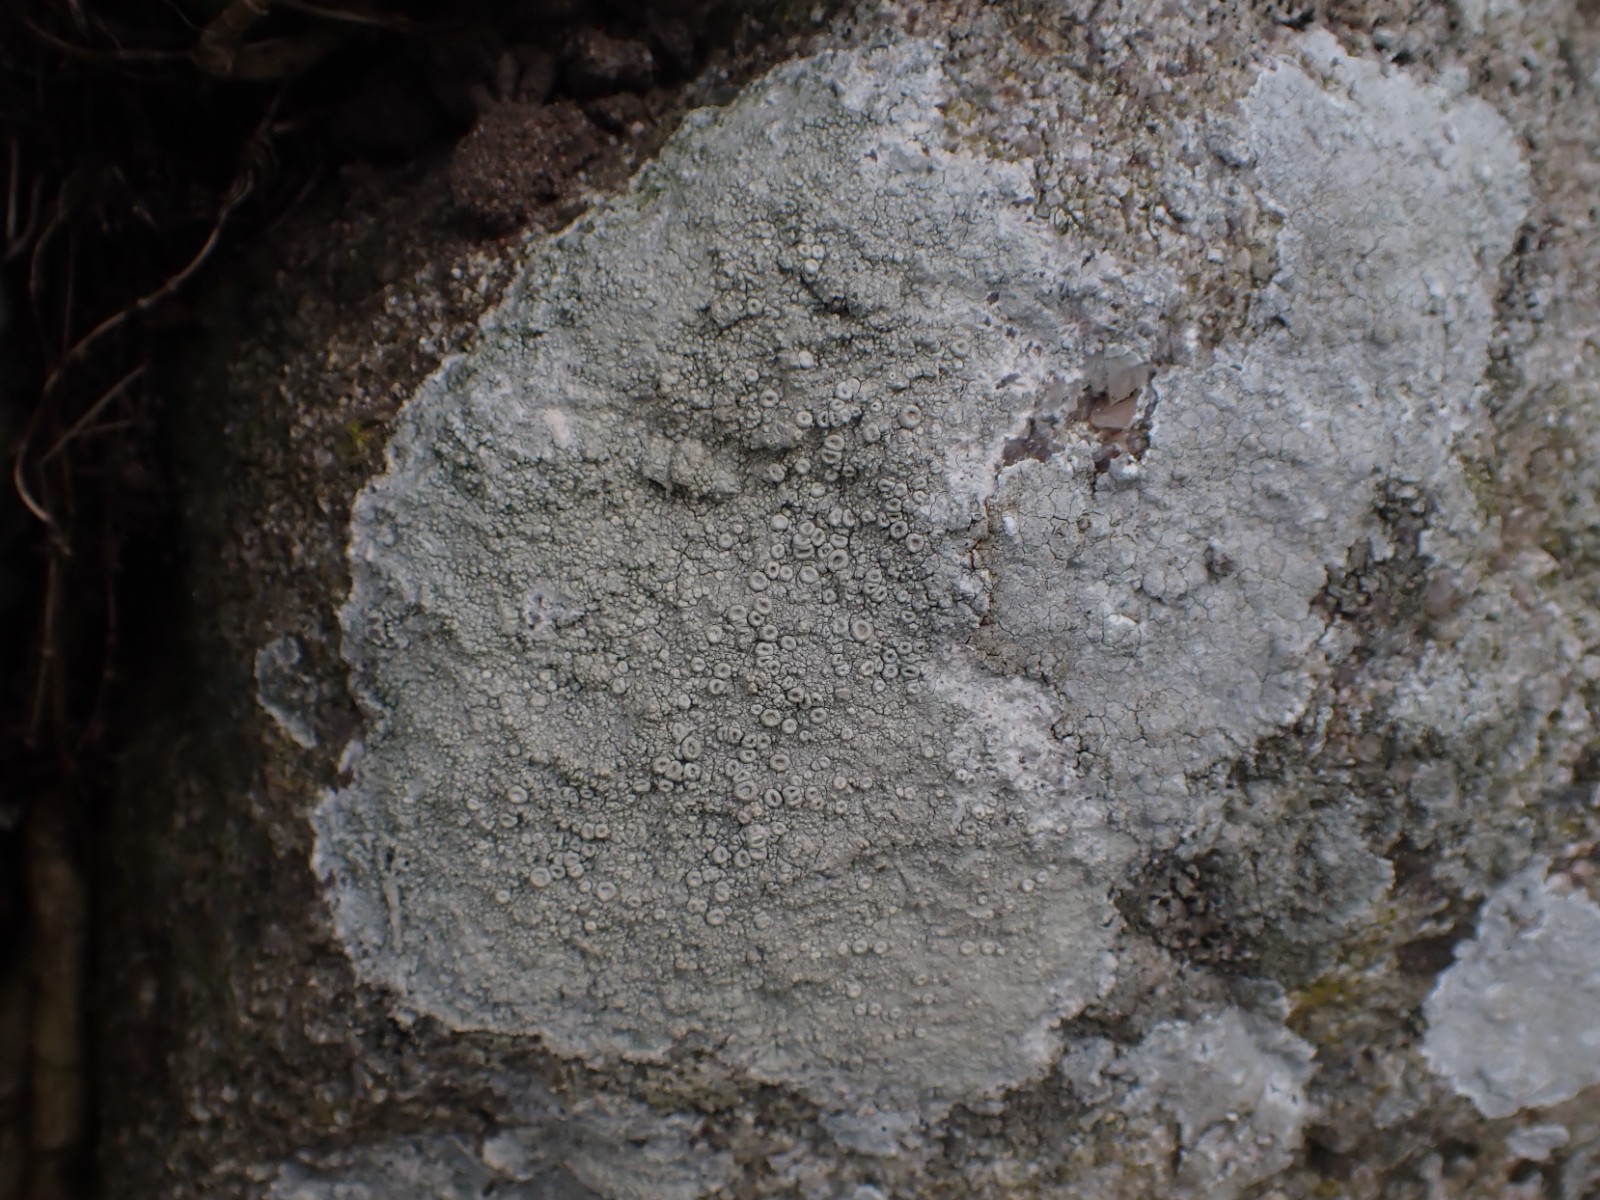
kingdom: Fungi
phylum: Ascomycota
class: Lecanoromycetes
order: Pertusariales
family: Ochrolechiaceae
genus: Ochrolechia
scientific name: Ochrolechia parella
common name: almindelig blegskivelav
